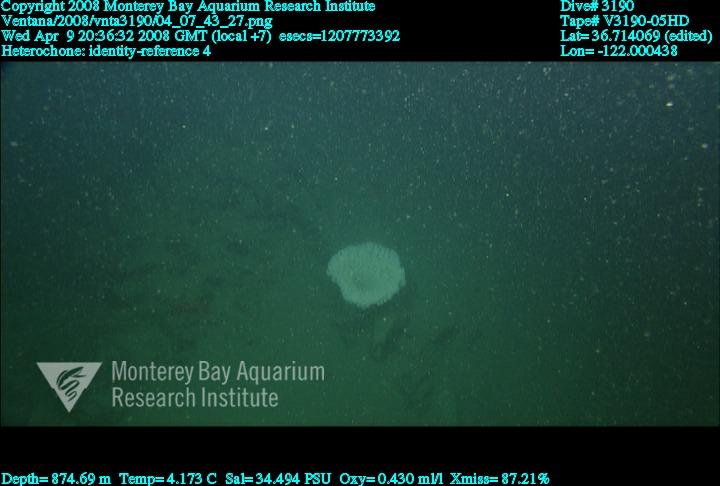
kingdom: Animalia
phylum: Porifera
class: Hexactinellida
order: Sceptrulophora
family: Aphrocallistidae
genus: Heterochone
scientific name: Heterochone
